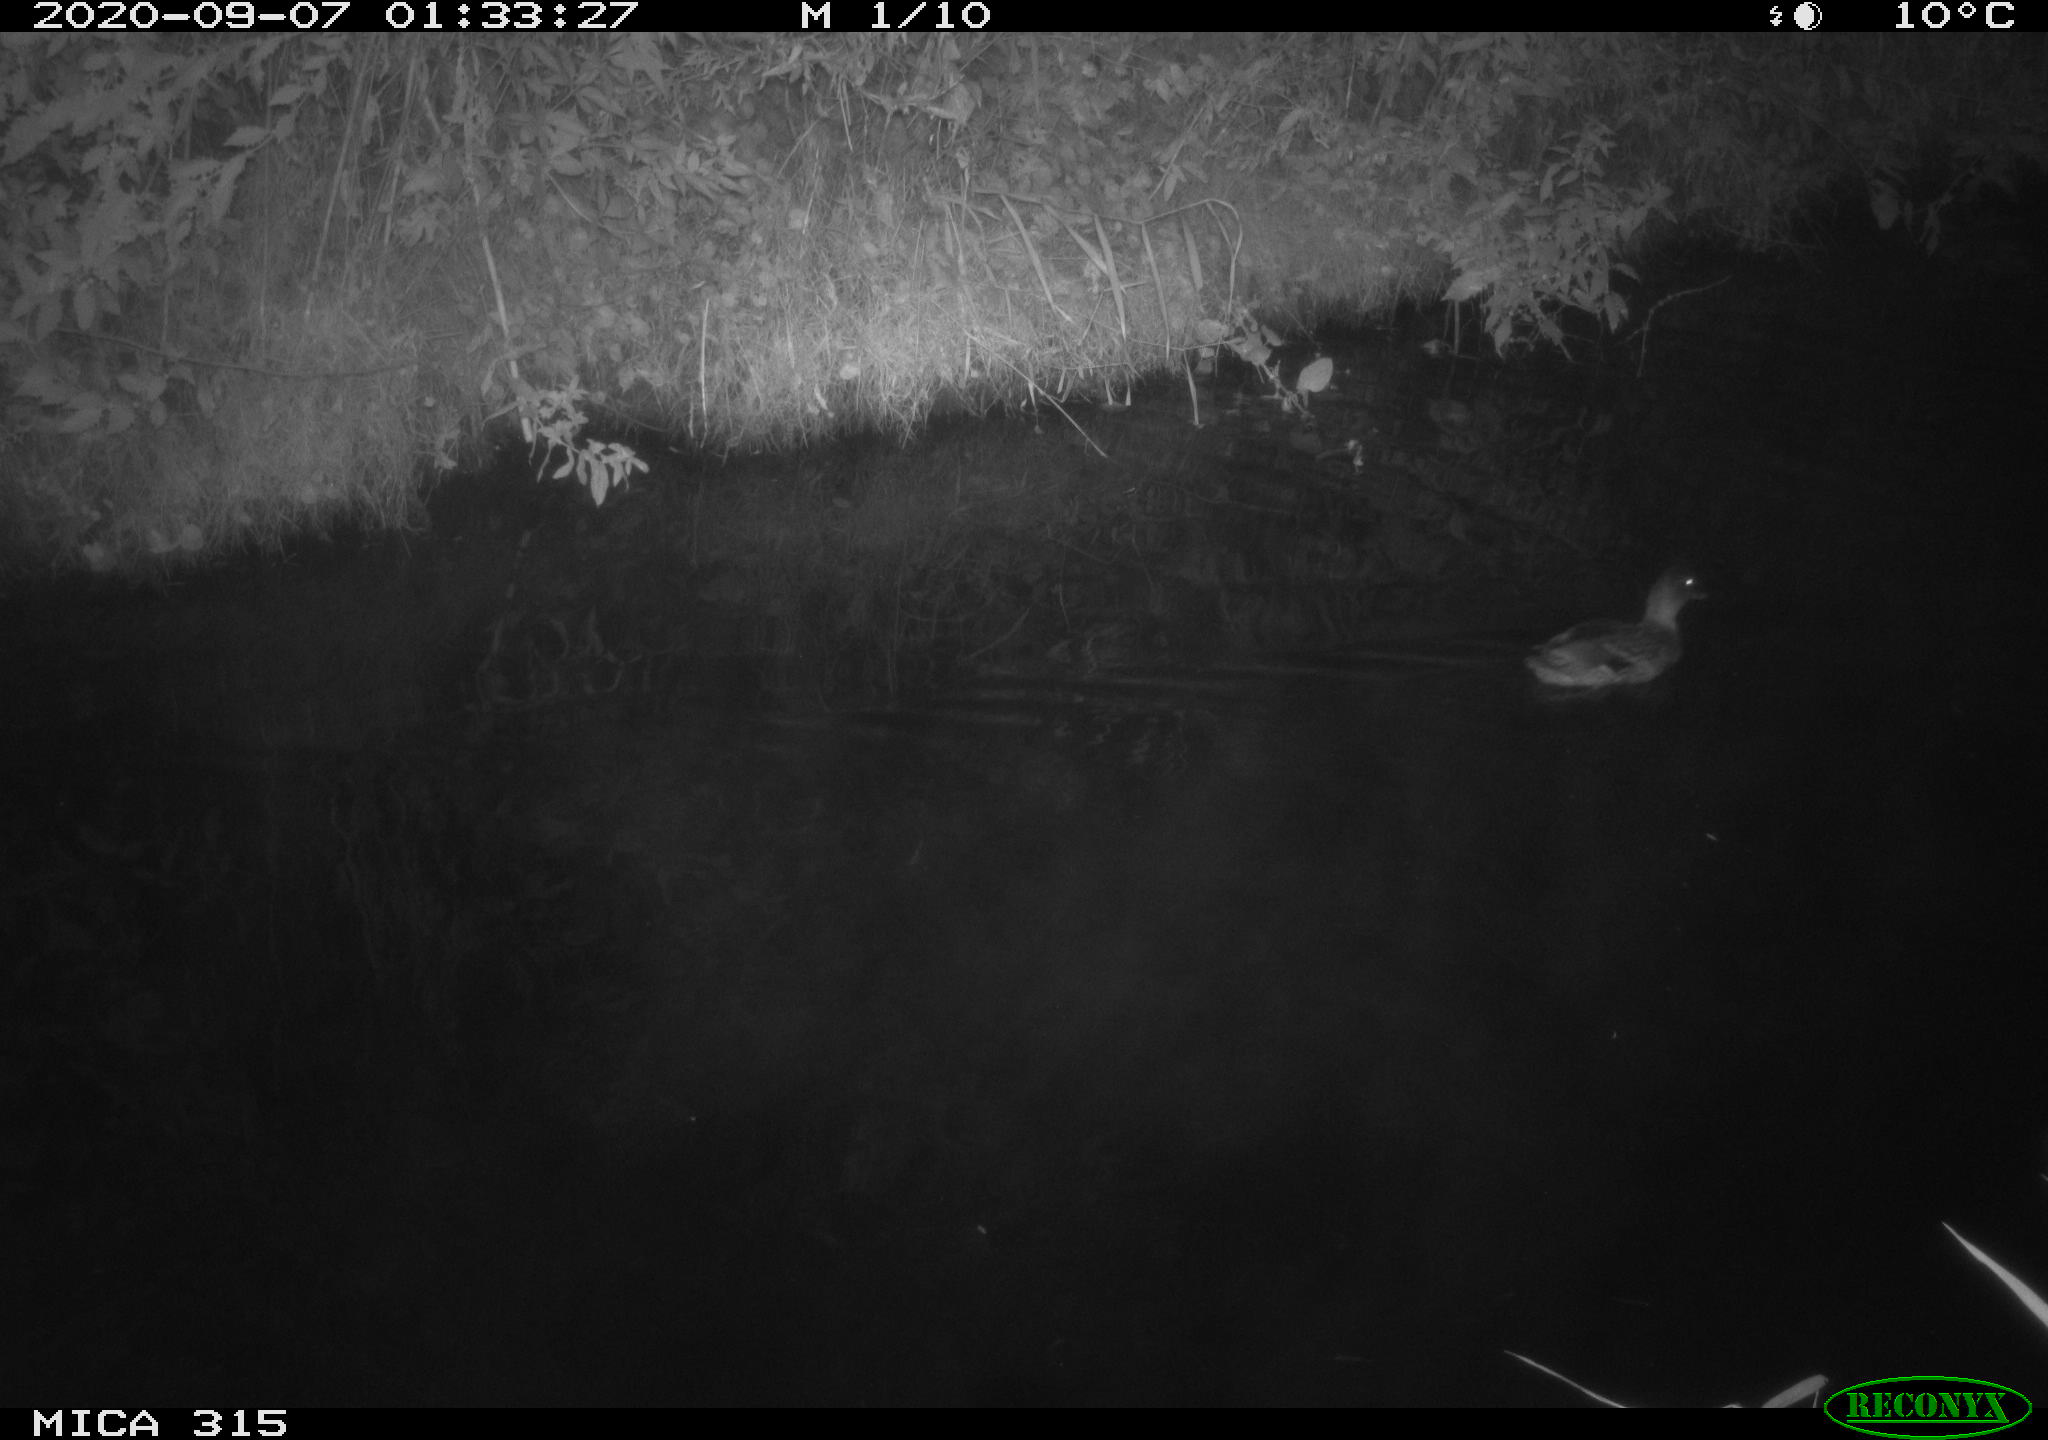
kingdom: Animalia
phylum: Chordata
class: Aves
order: Anseriformes
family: Anatidae
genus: Anas
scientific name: Anas platyrhynchos
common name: Mallard
